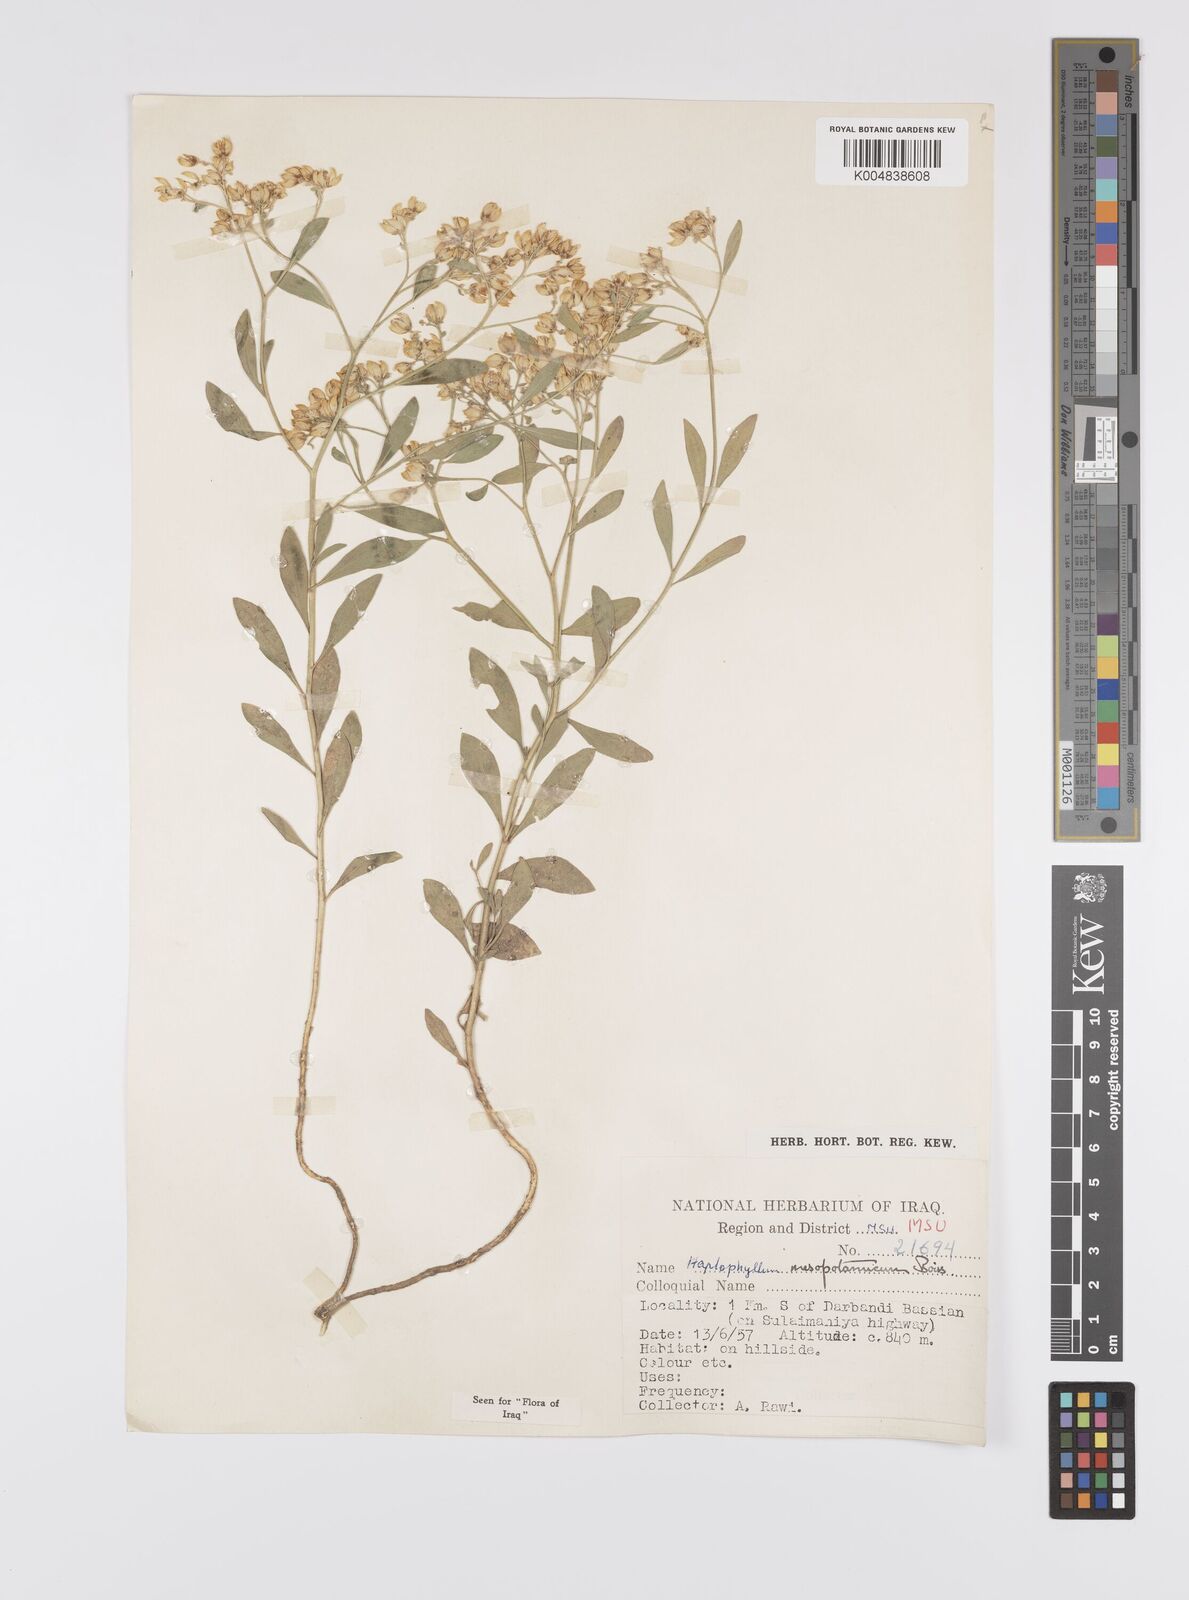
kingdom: Plantae
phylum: Tracheophyta
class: Magnoliopsida
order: Sapindales
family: Rutaceae
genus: Haplophyllum
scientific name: Haplophyllum buxbaumii
